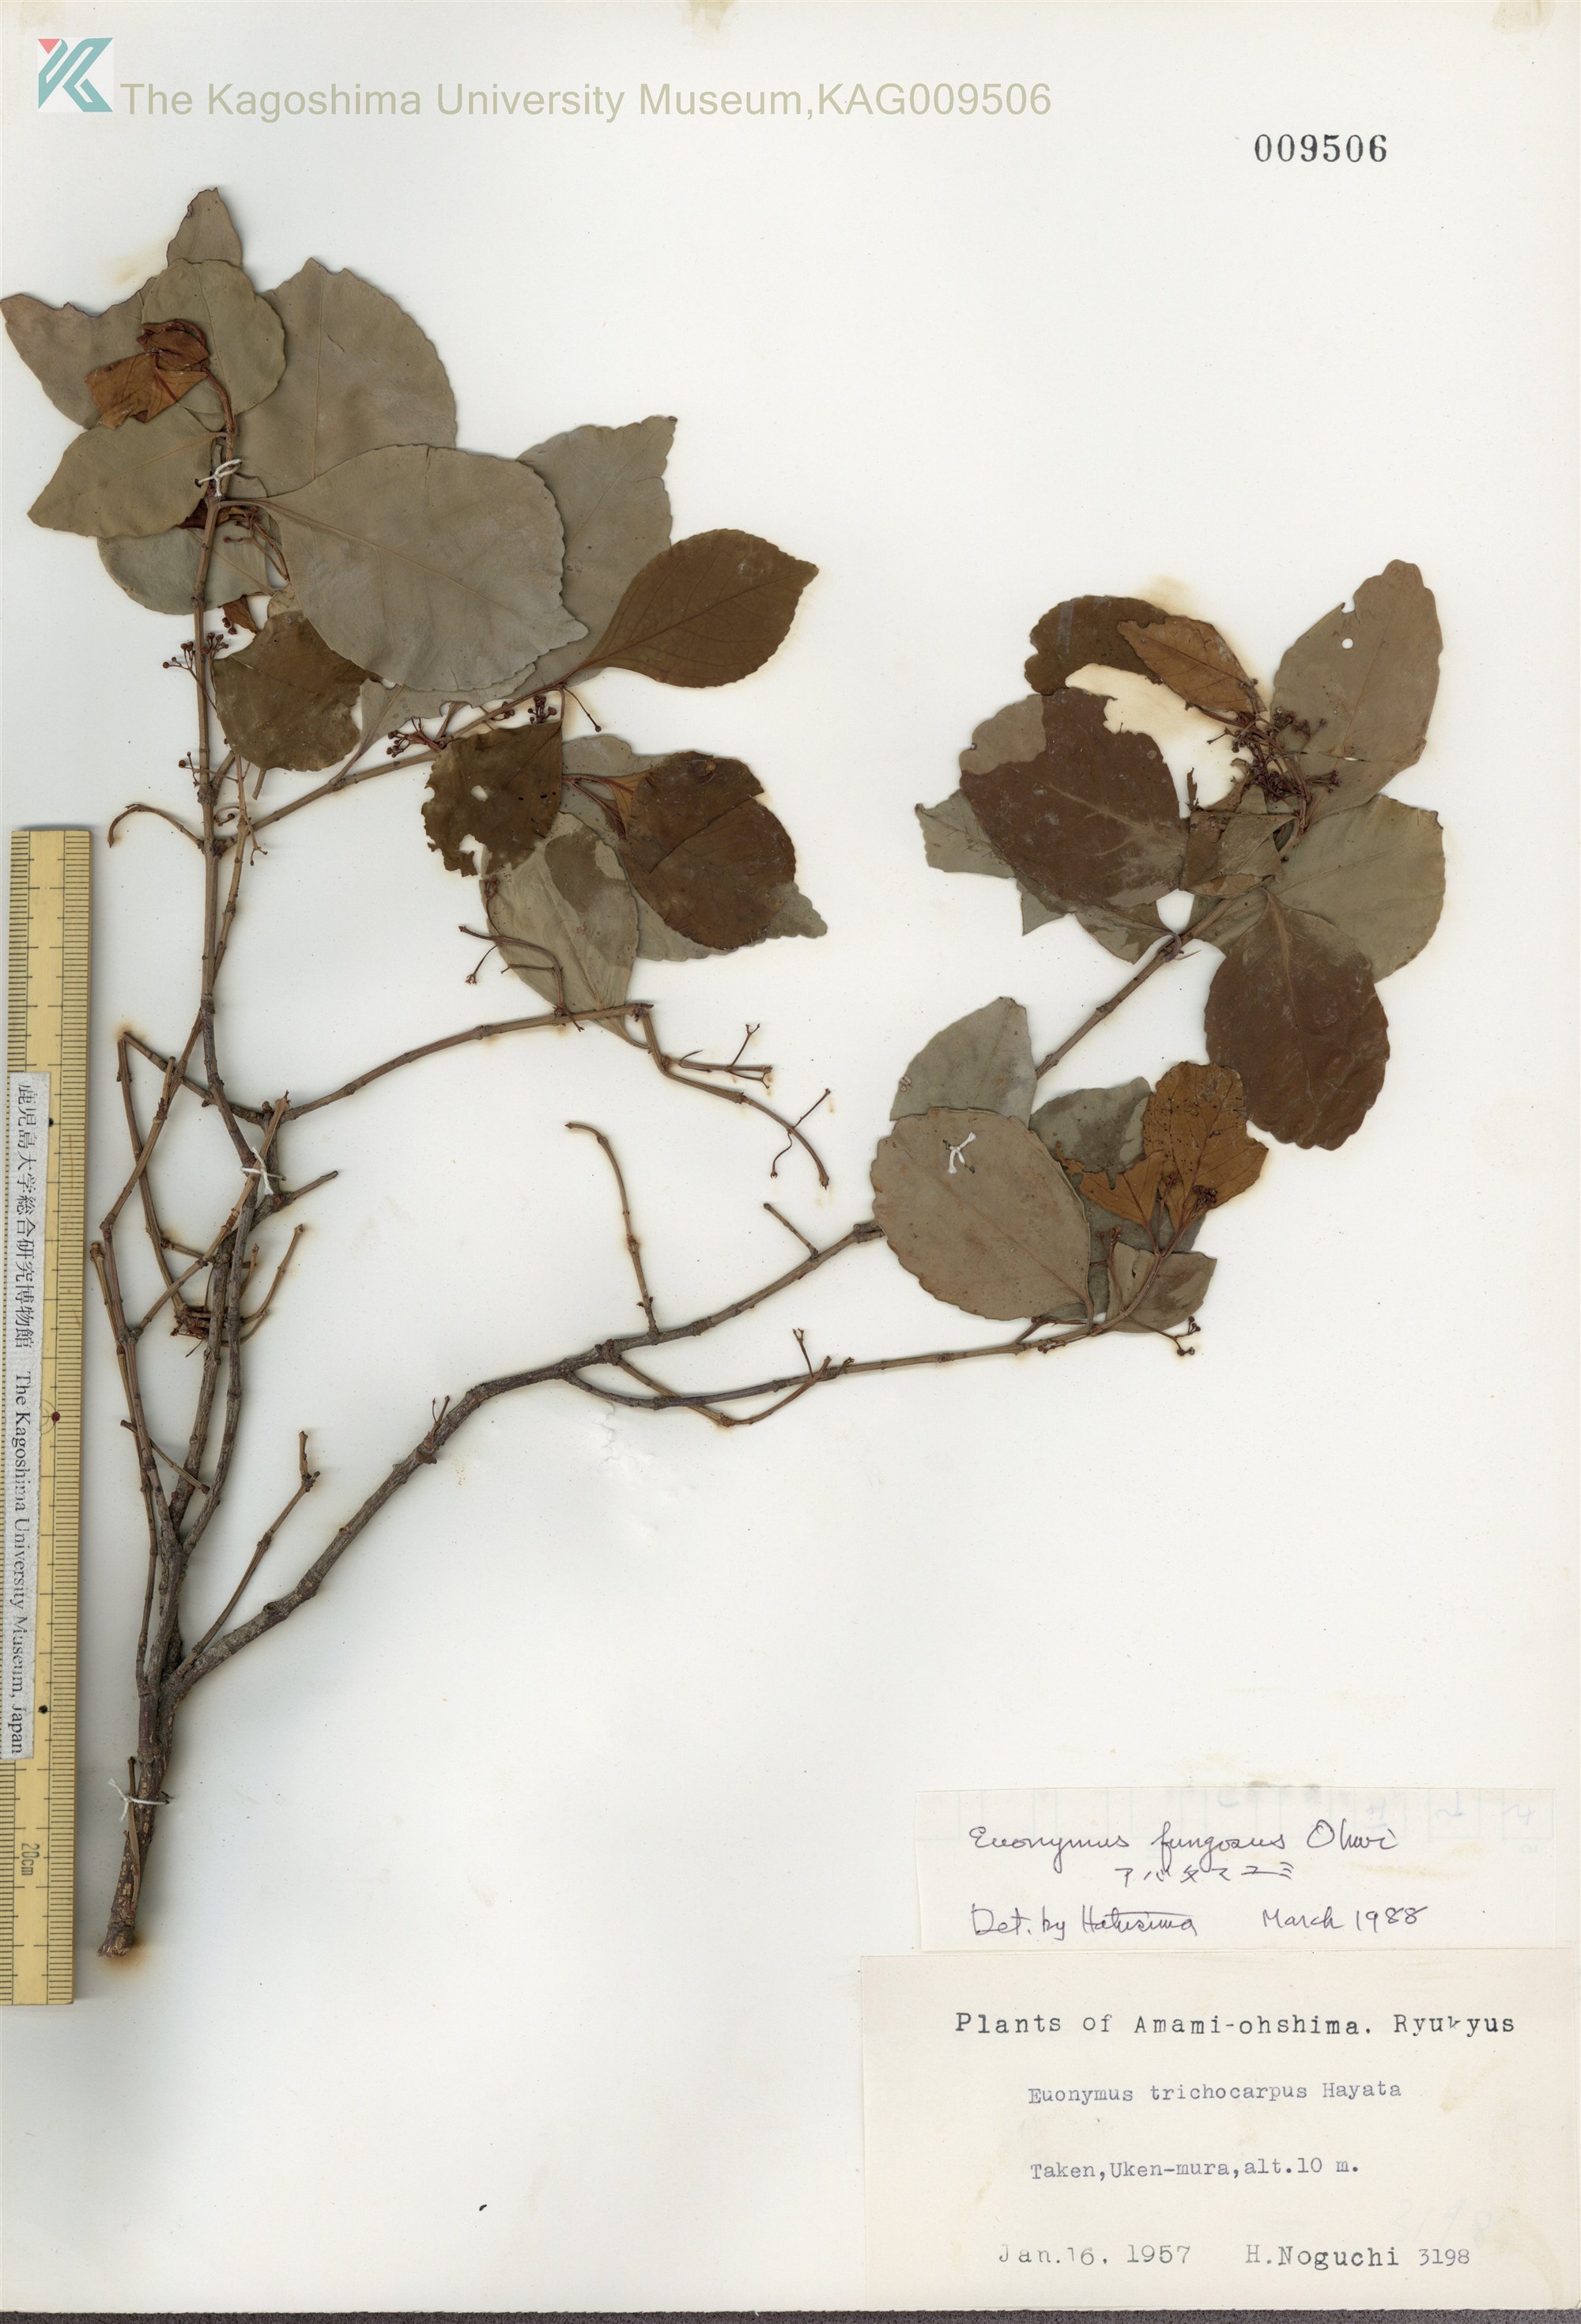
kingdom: Plantae
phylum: Tracheophyta
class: Magnoliopsida
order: Celastrales
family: Celastraceae
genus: Euonymus
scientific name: Euonymus echinatus
